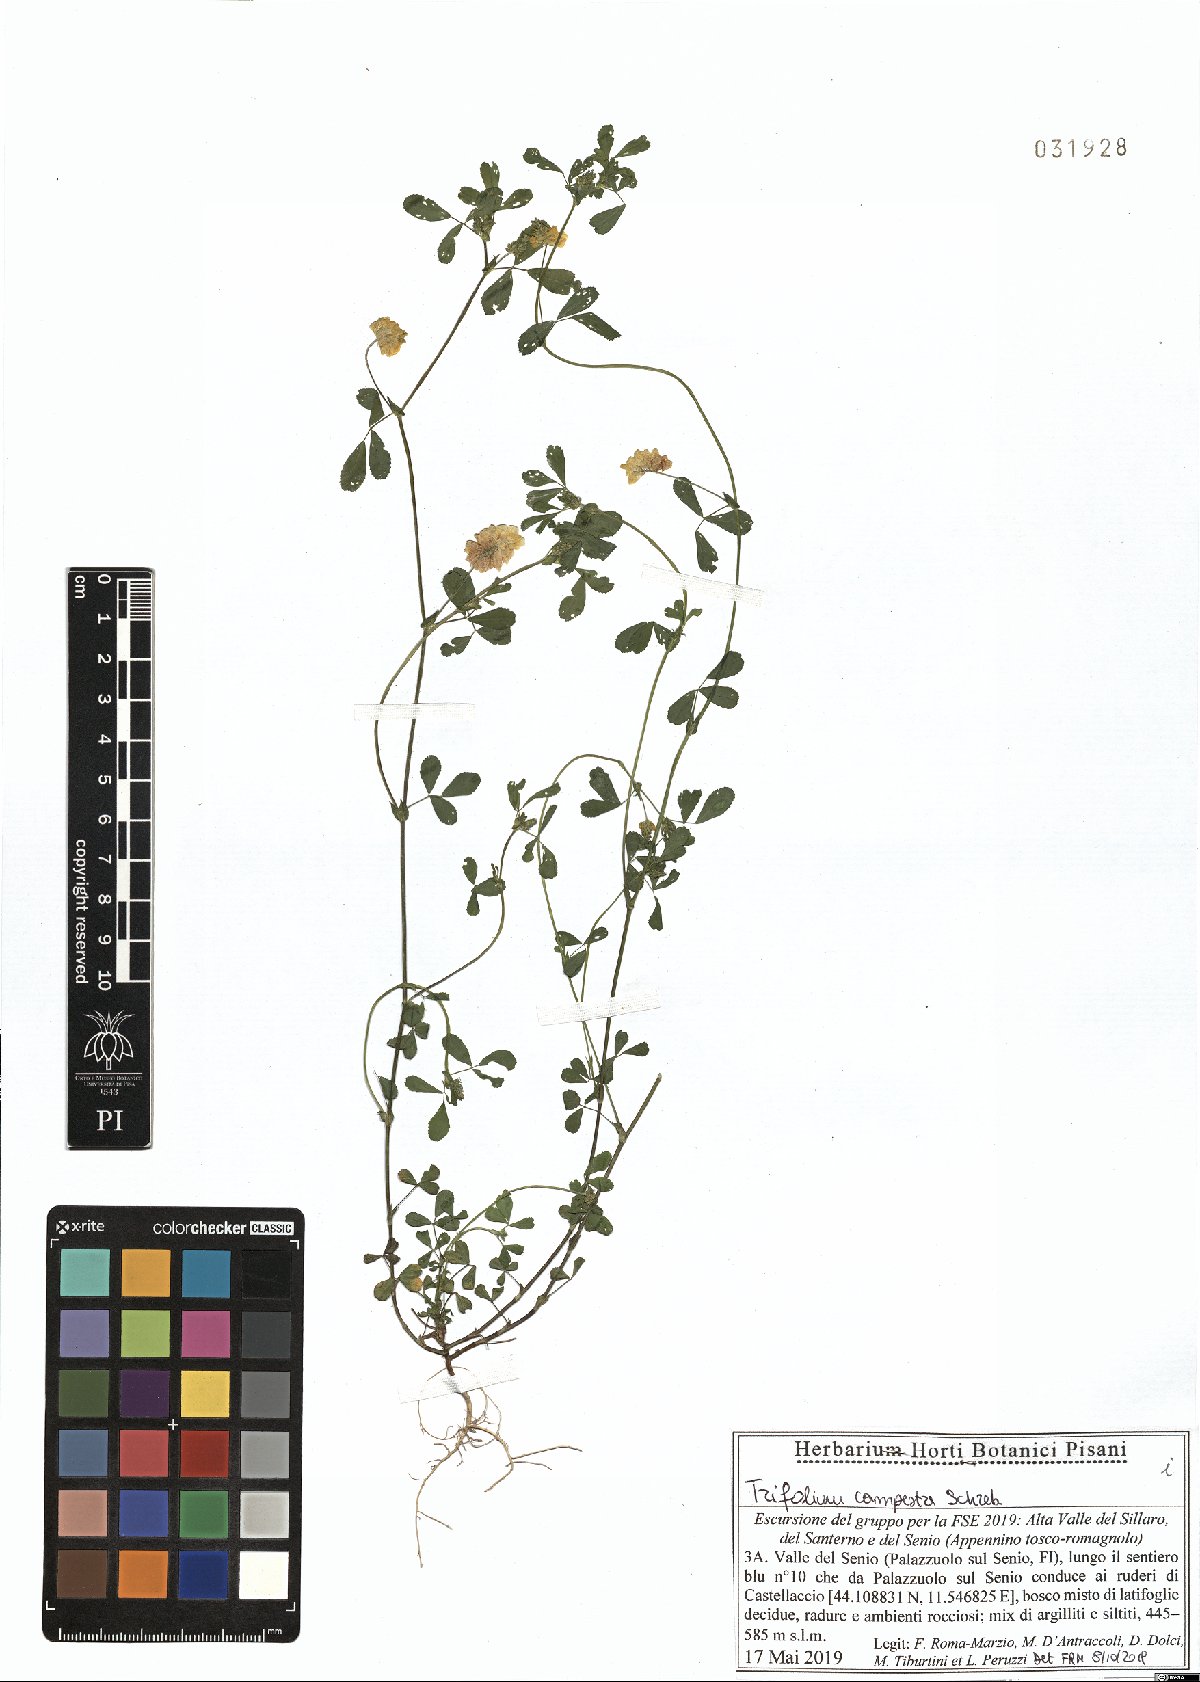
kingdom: Plantae
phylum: Tracheophyta
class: Magnoliopsida
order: Fabales
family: Fabaceae
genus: Trifolium
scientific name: Trifolium campestre
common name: Field clover
